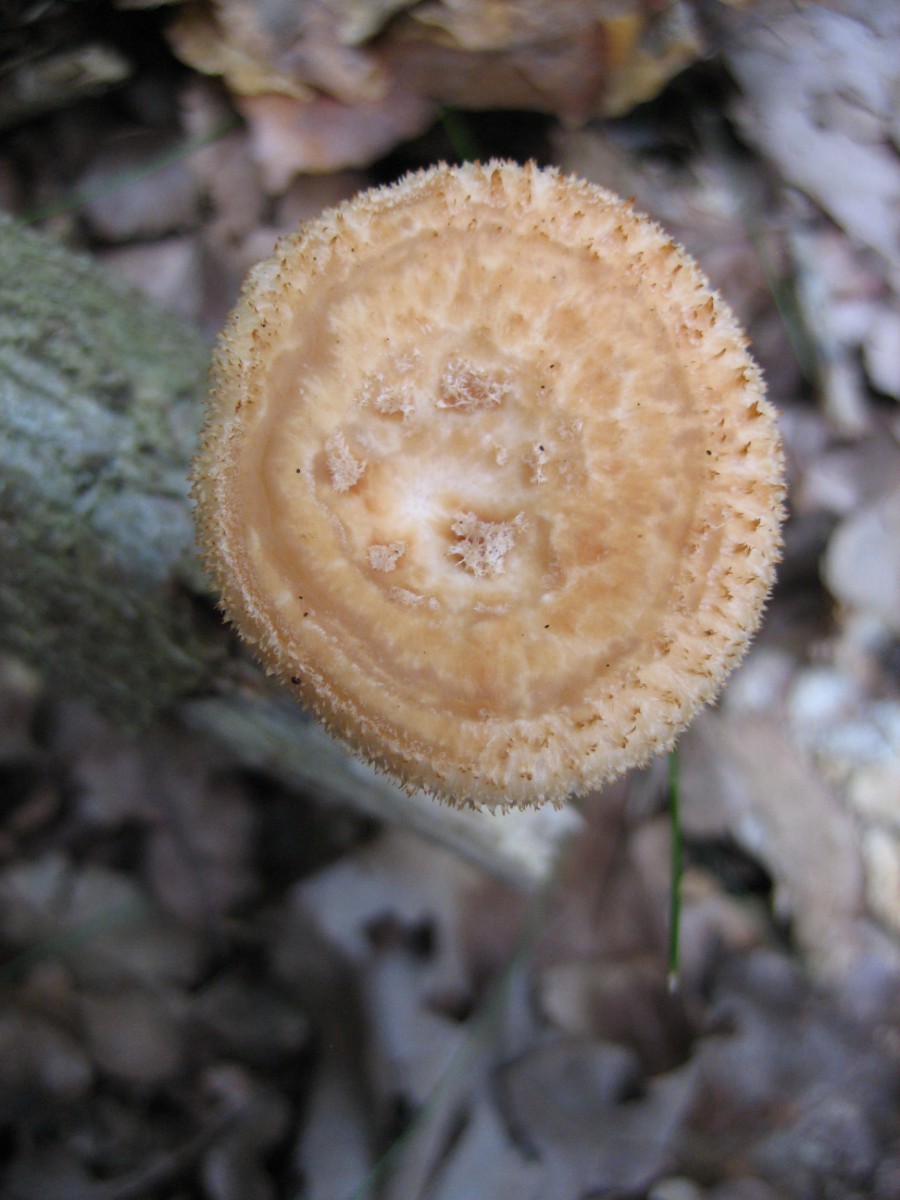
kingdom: Fungi
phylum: Basidiomycota
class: Agaricomycetes
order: Polyporales
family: Polyporaceae
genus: Polyporus
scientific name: Polyporus tuberaster
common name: knoldet stilkporesvamp
